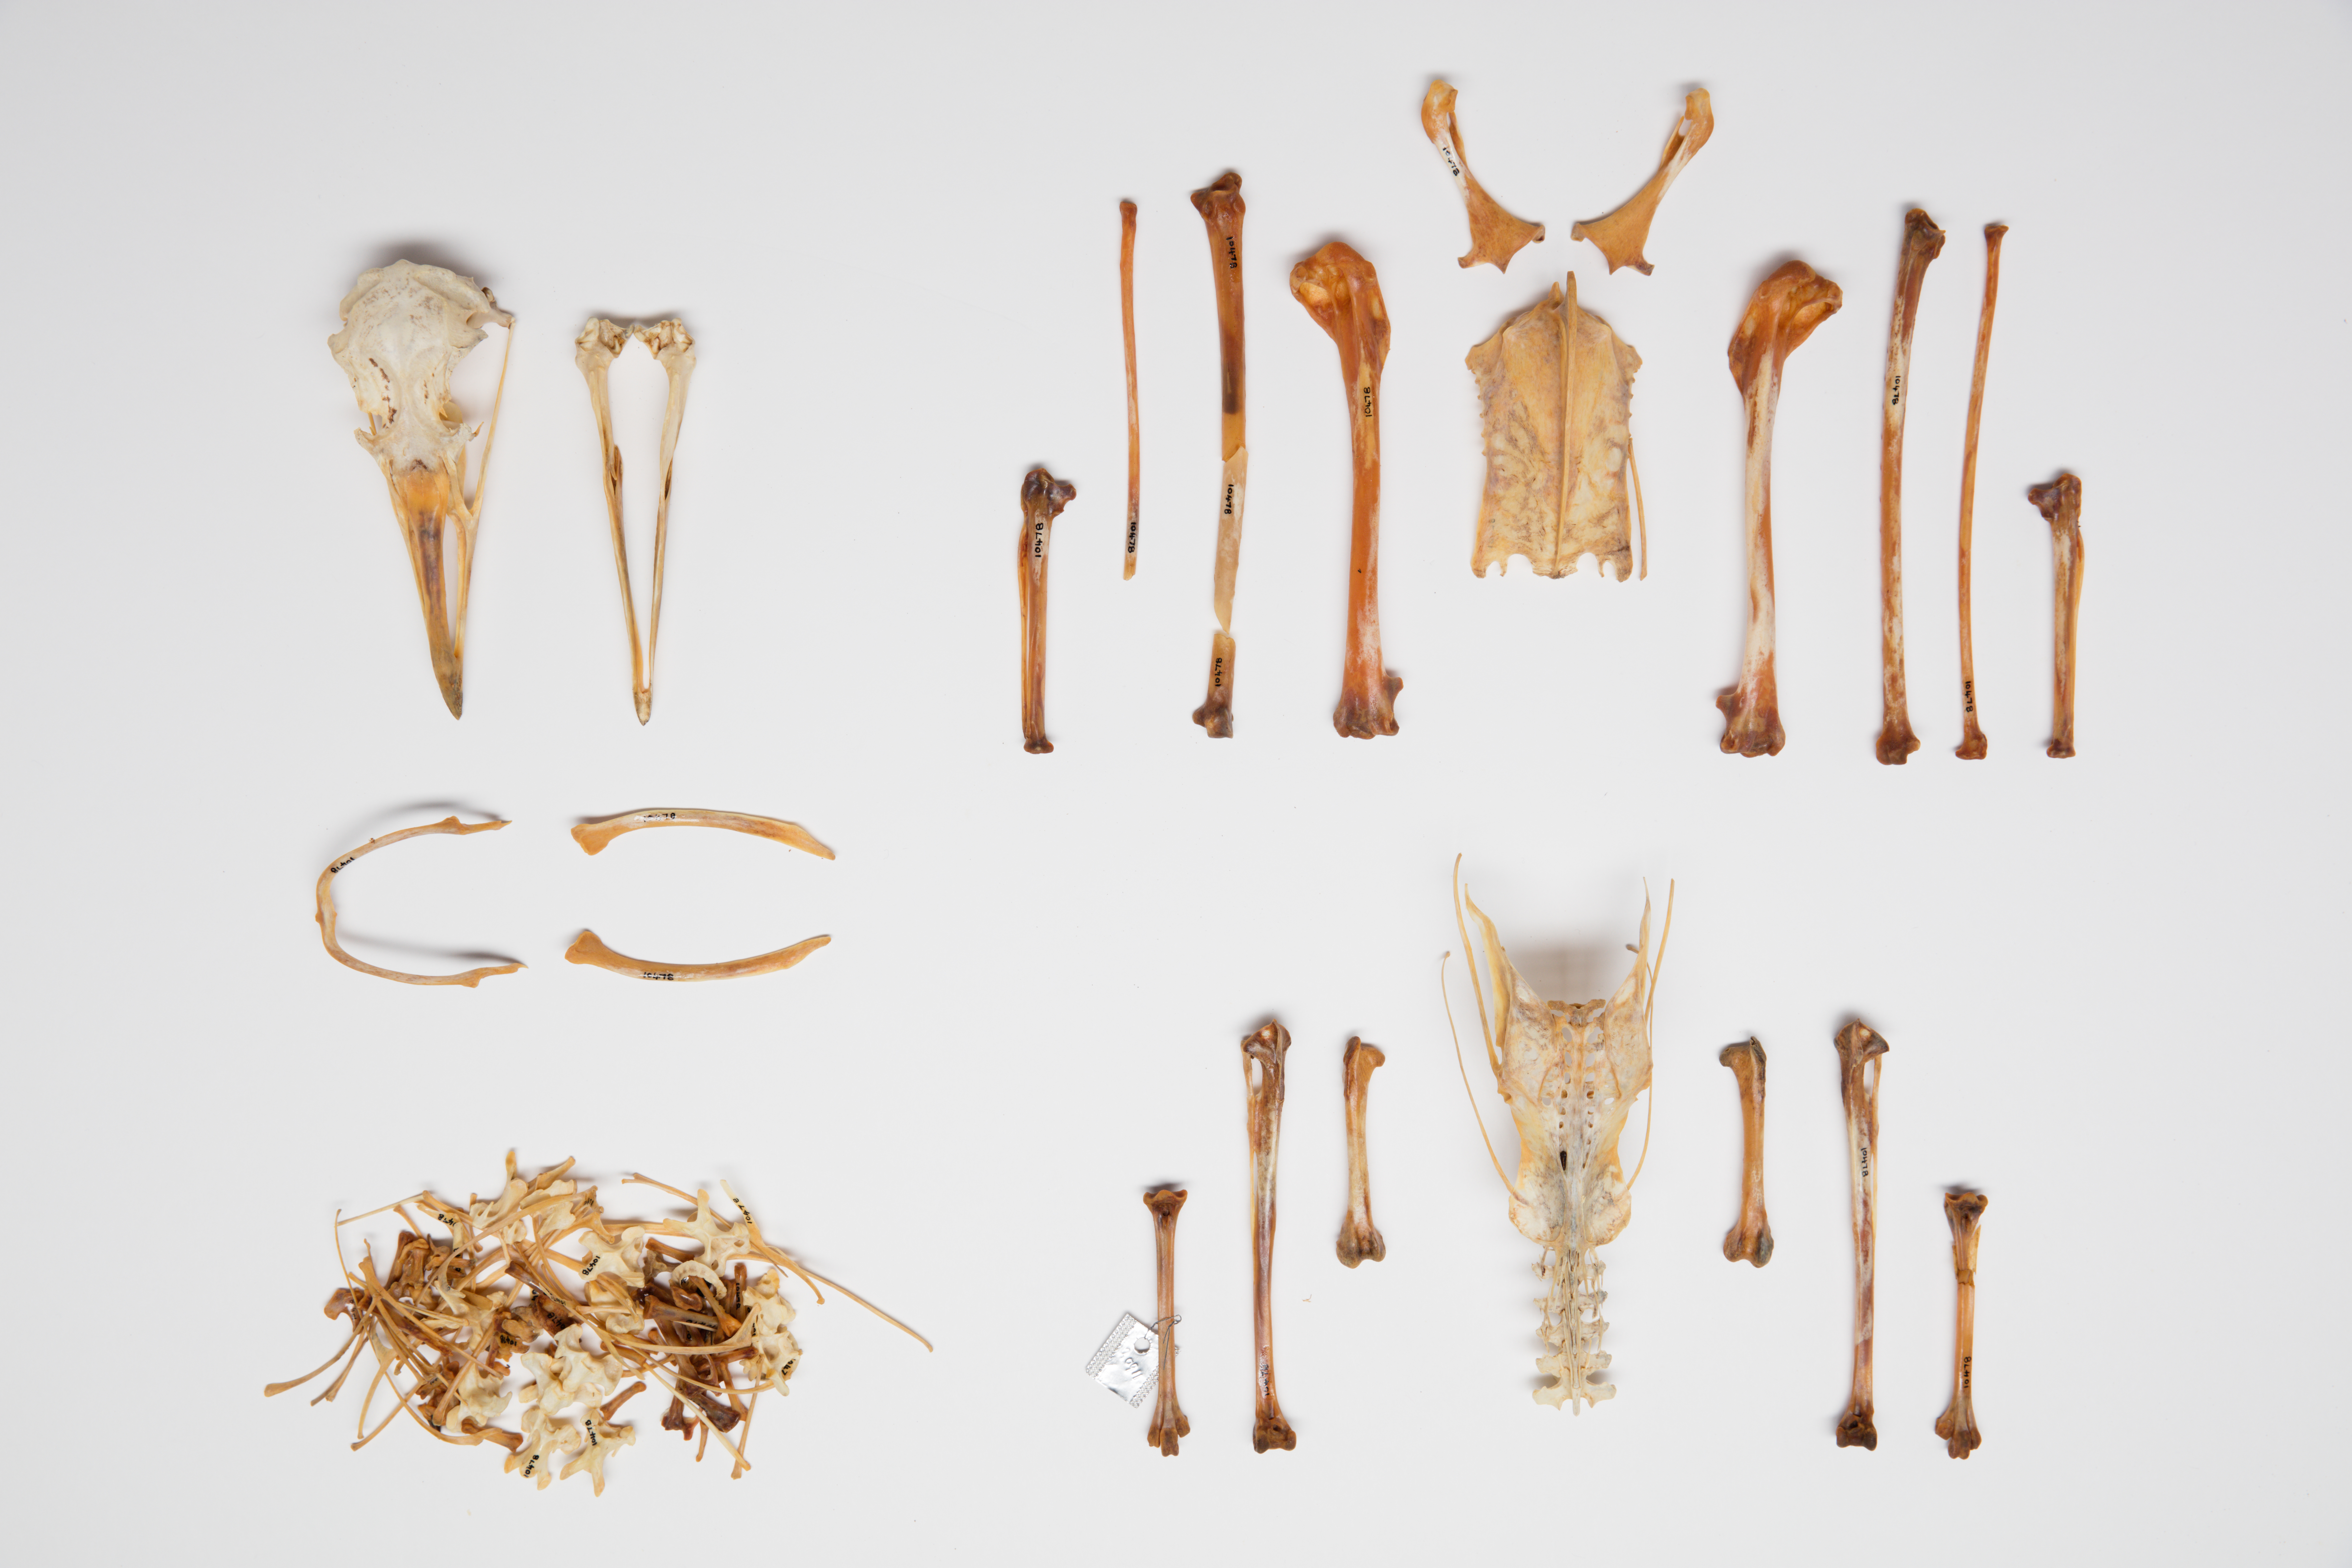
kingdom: Animalia
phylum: Chordata
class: Aves
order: Charadriiformes
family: Laridae
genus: Larus
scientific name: Larus marinus
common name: Great black-backed gull
